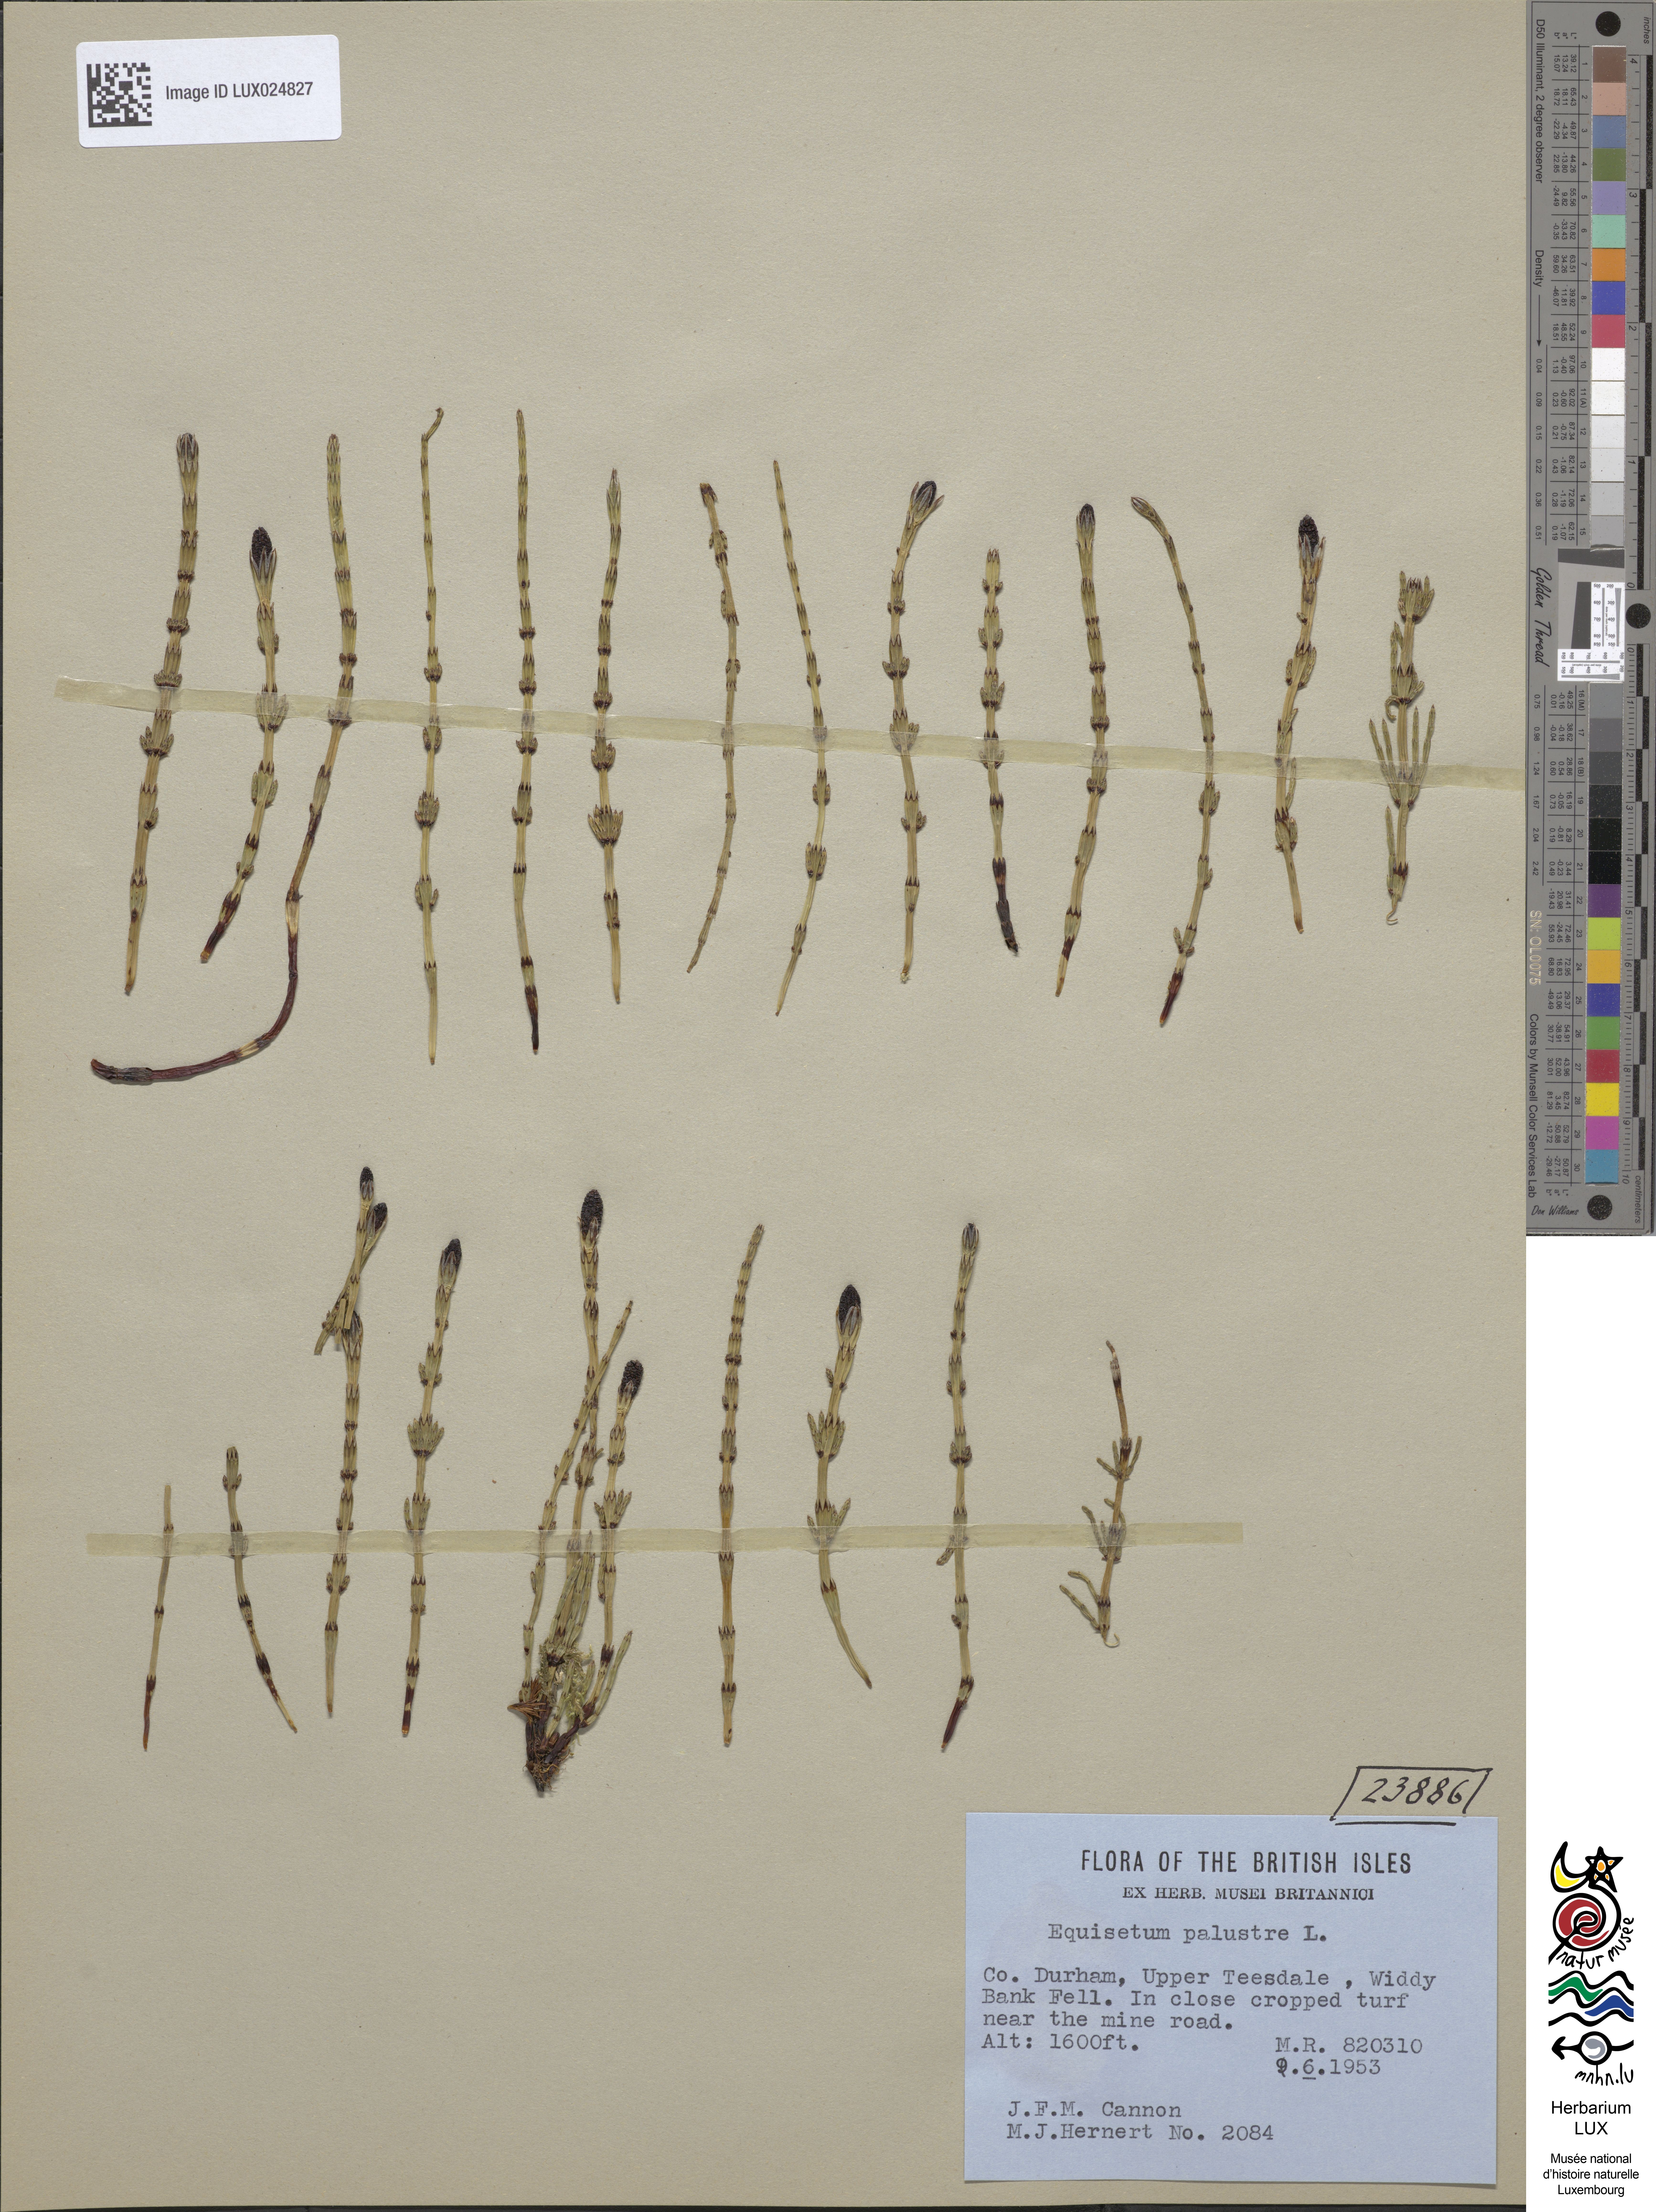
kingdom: Plantae
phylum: Tracheophyta
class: Polypodiopsida
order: Equisetales
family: Equisetaceae
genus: Equisetum
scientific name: Equisetum palustre
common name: Marsh horsetail
